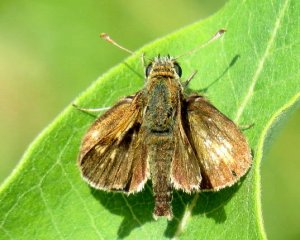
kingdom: Animalia
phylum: Arthropoda
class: Insecta
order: Lepidoptera
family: Hesperiidae
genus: Polites
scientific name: Polites coras
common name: Peck's Skipper
